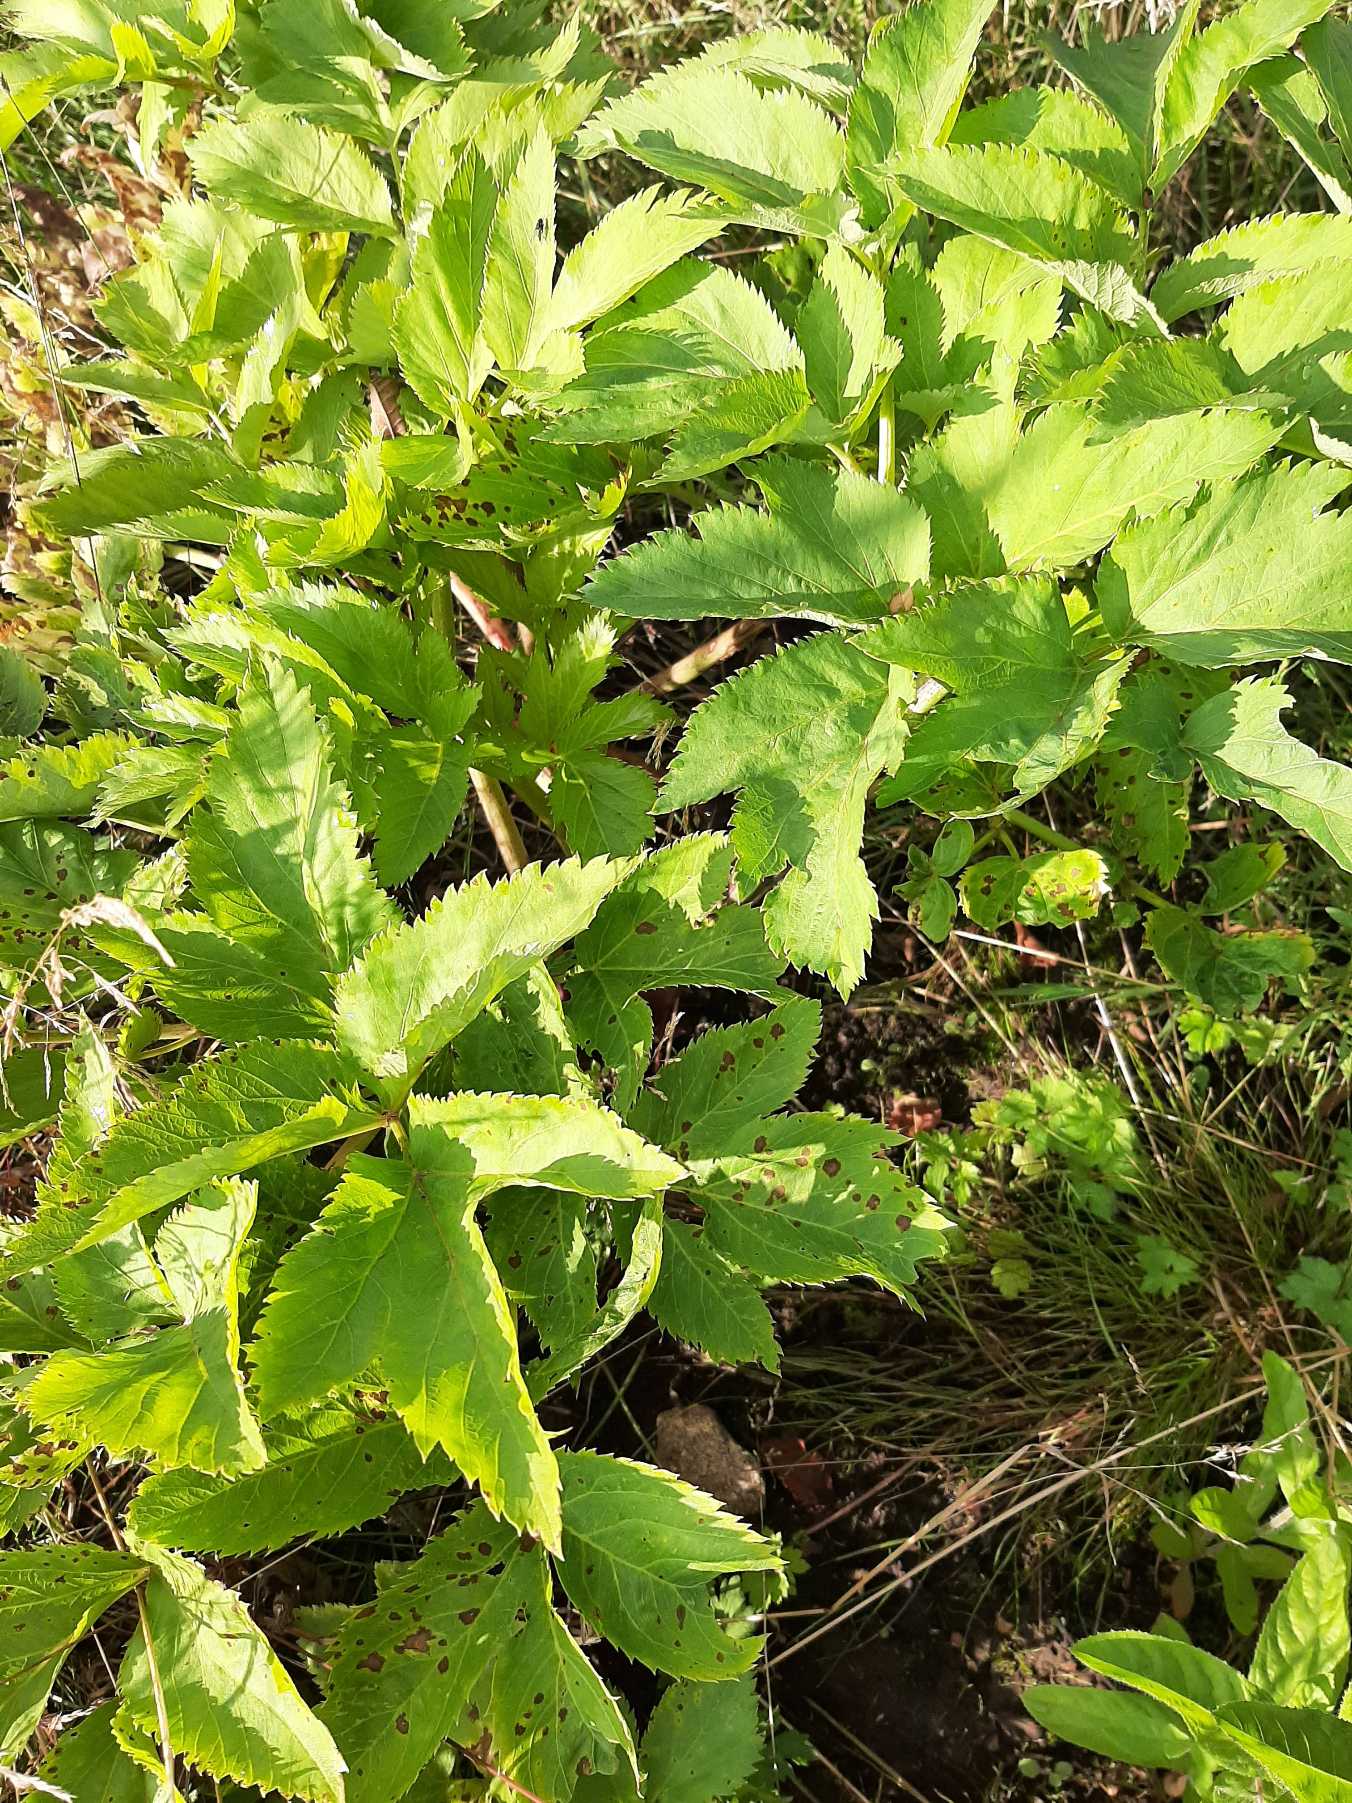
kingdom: Plantae
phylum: Tracheophyta
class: Magnoliopsida
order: Apiales
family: Apiaceae
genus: Angelica
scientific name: Angelica archangelica
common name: Kvan
